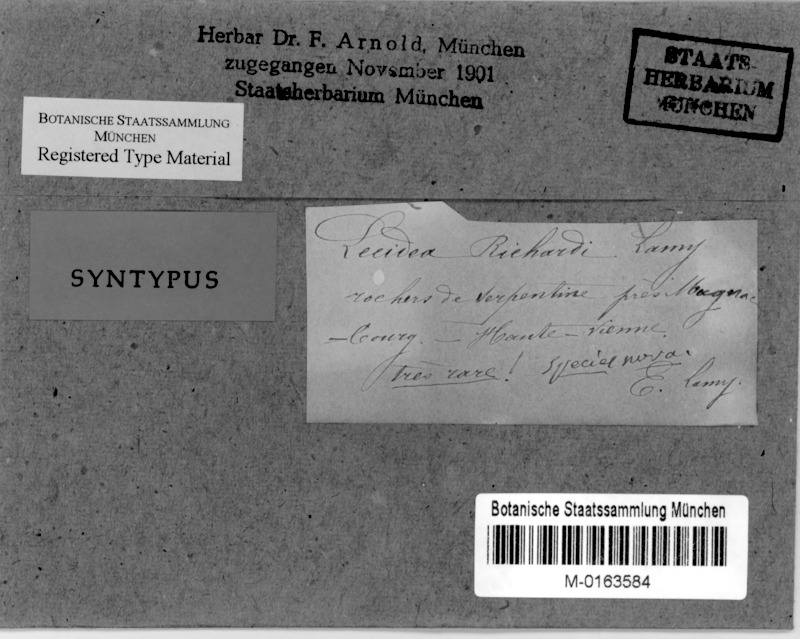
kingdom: Fungi
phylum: Ascomycota
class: Lecanoromycetes
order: Rhizocarpales
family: Rhizocarpaceae
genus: Rhizocarpon
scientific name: Rhizocarpon richardii
